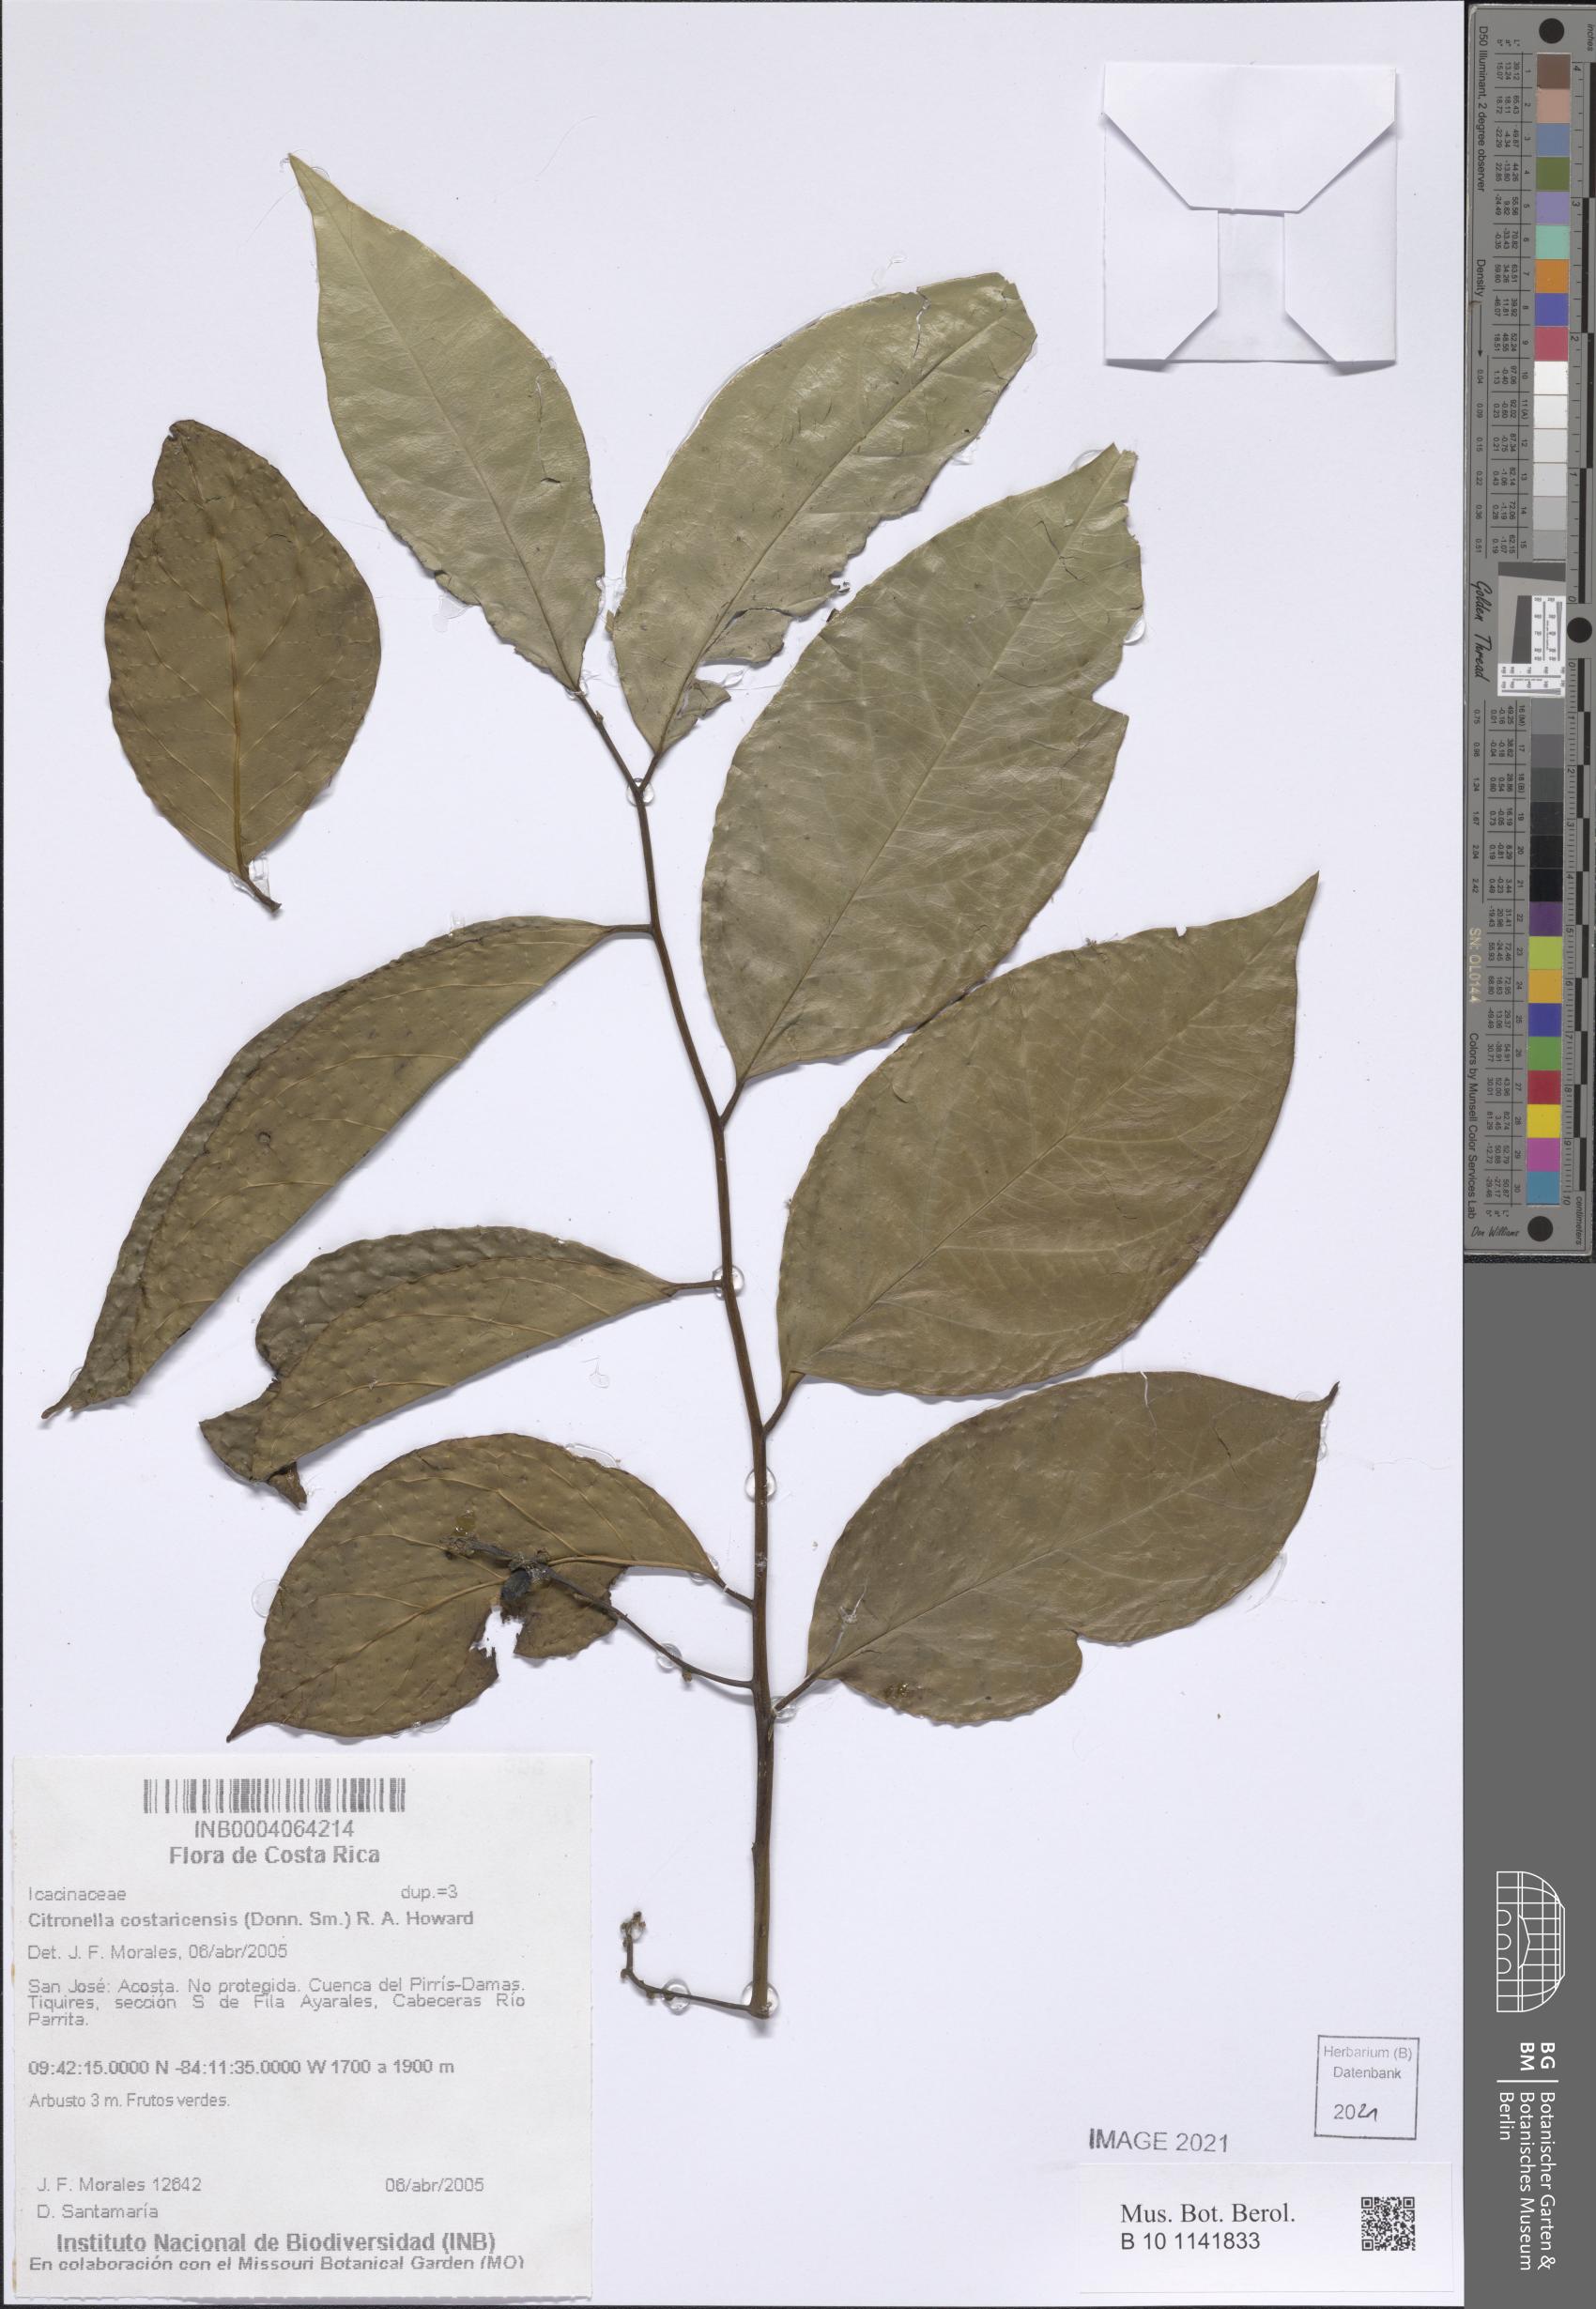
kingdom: Plantae
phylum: Tracheophyta
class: Magnoliopsida
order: Cardiopteridales
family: Cardiopteridaceae
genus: Citronella
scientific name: Citronella costaricensis
